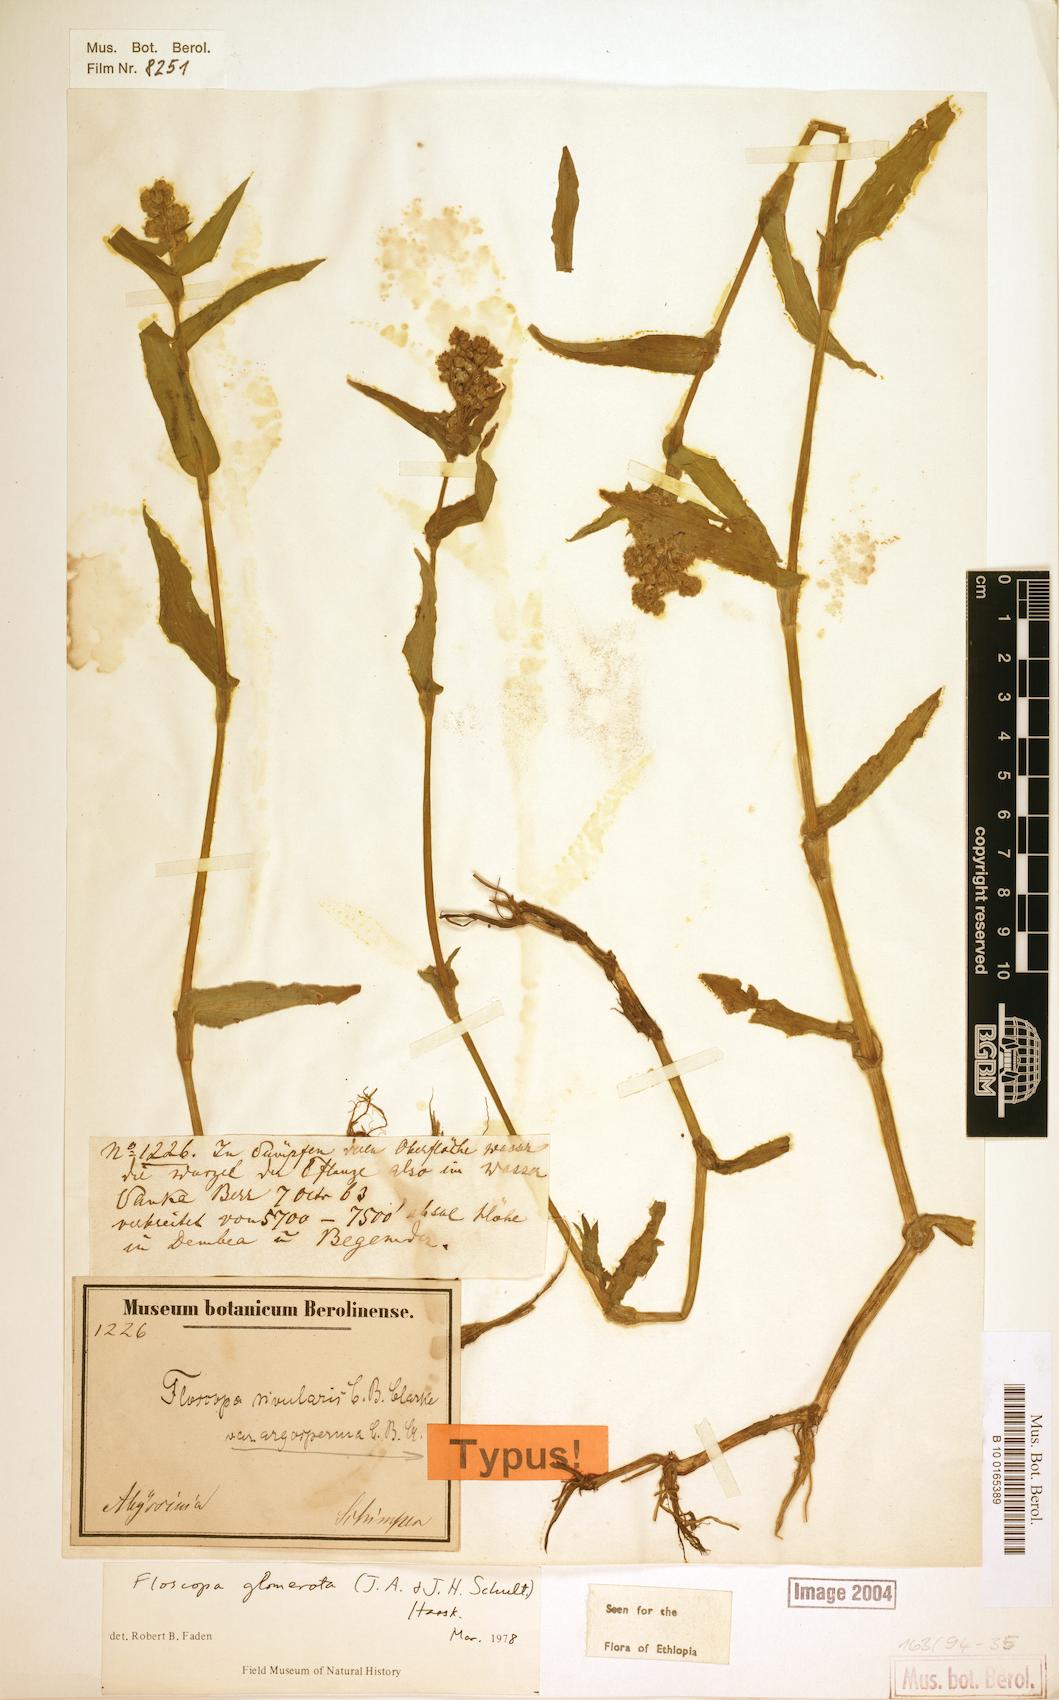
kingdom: Plantae
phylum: Tracheophyta
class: Liliopsida
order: Commelinales
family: Commelinaceae
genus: Floscopa
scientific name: Floscopa glomerata
